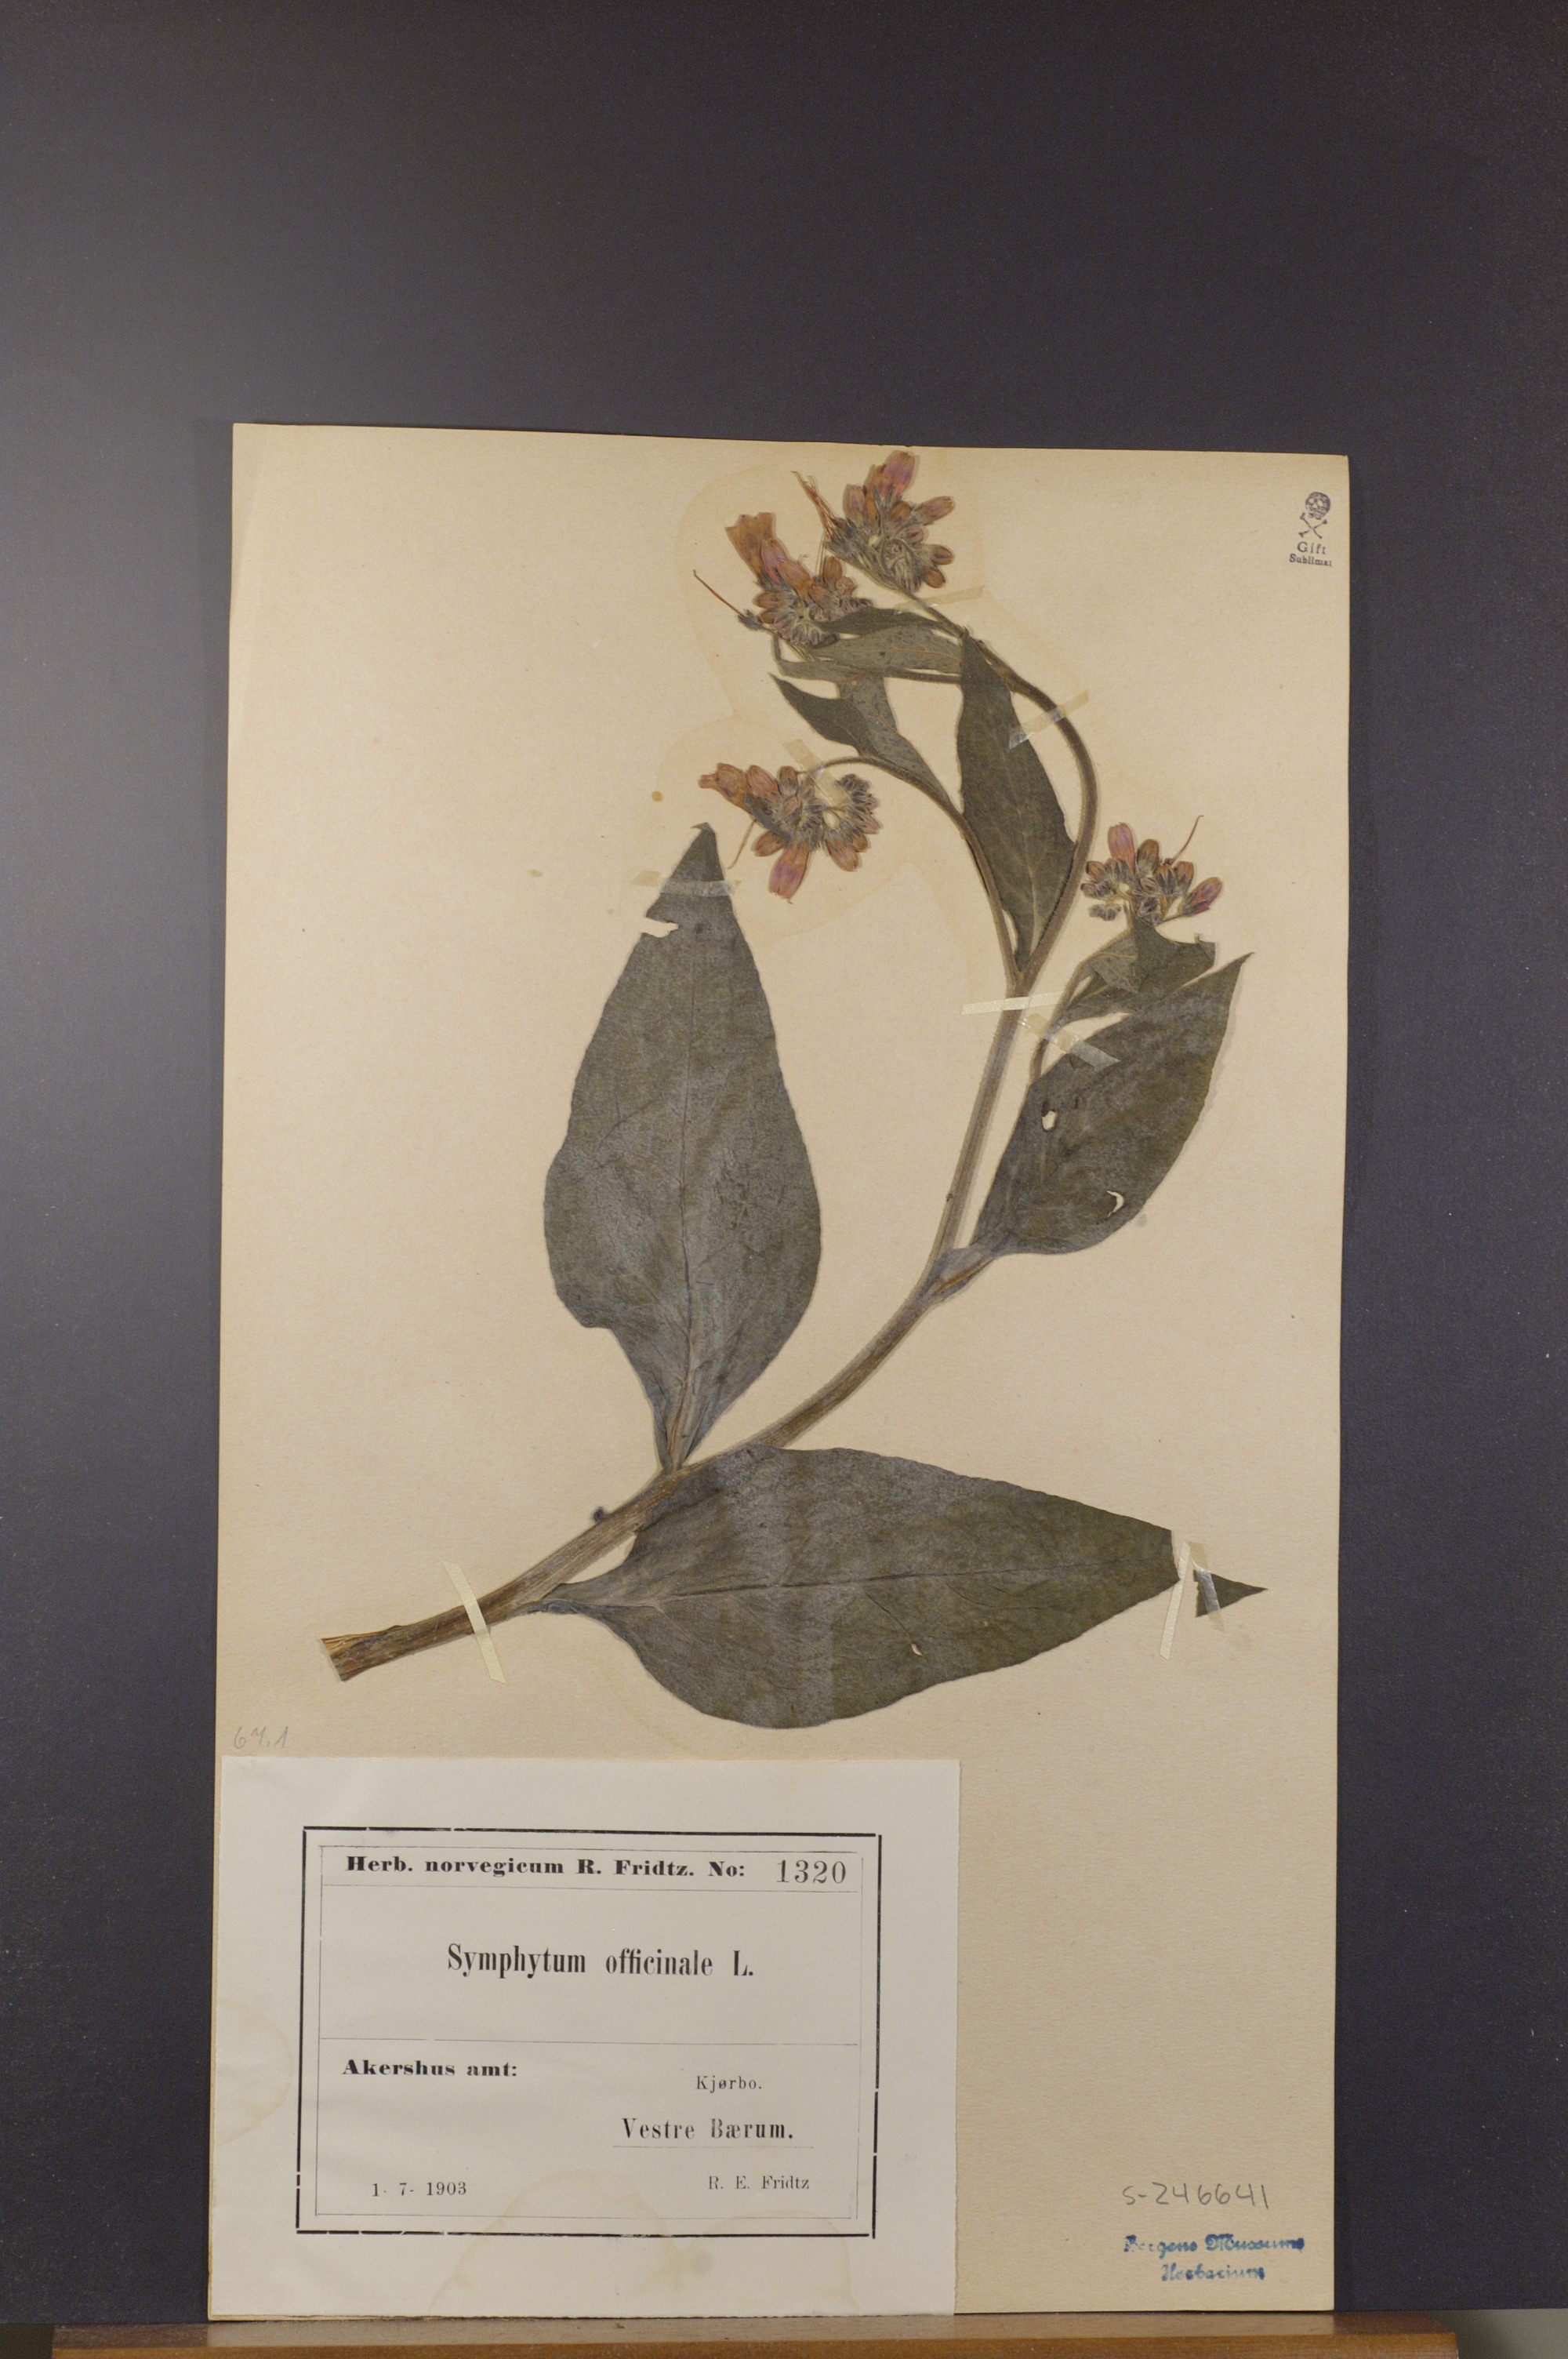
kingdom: Plantae
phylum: Tracheophyta
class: Magnoliopsida
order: Boraginales
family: Boraginaceae
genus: Symphytum
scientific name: Symphytum officinale
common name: Common comfrey
